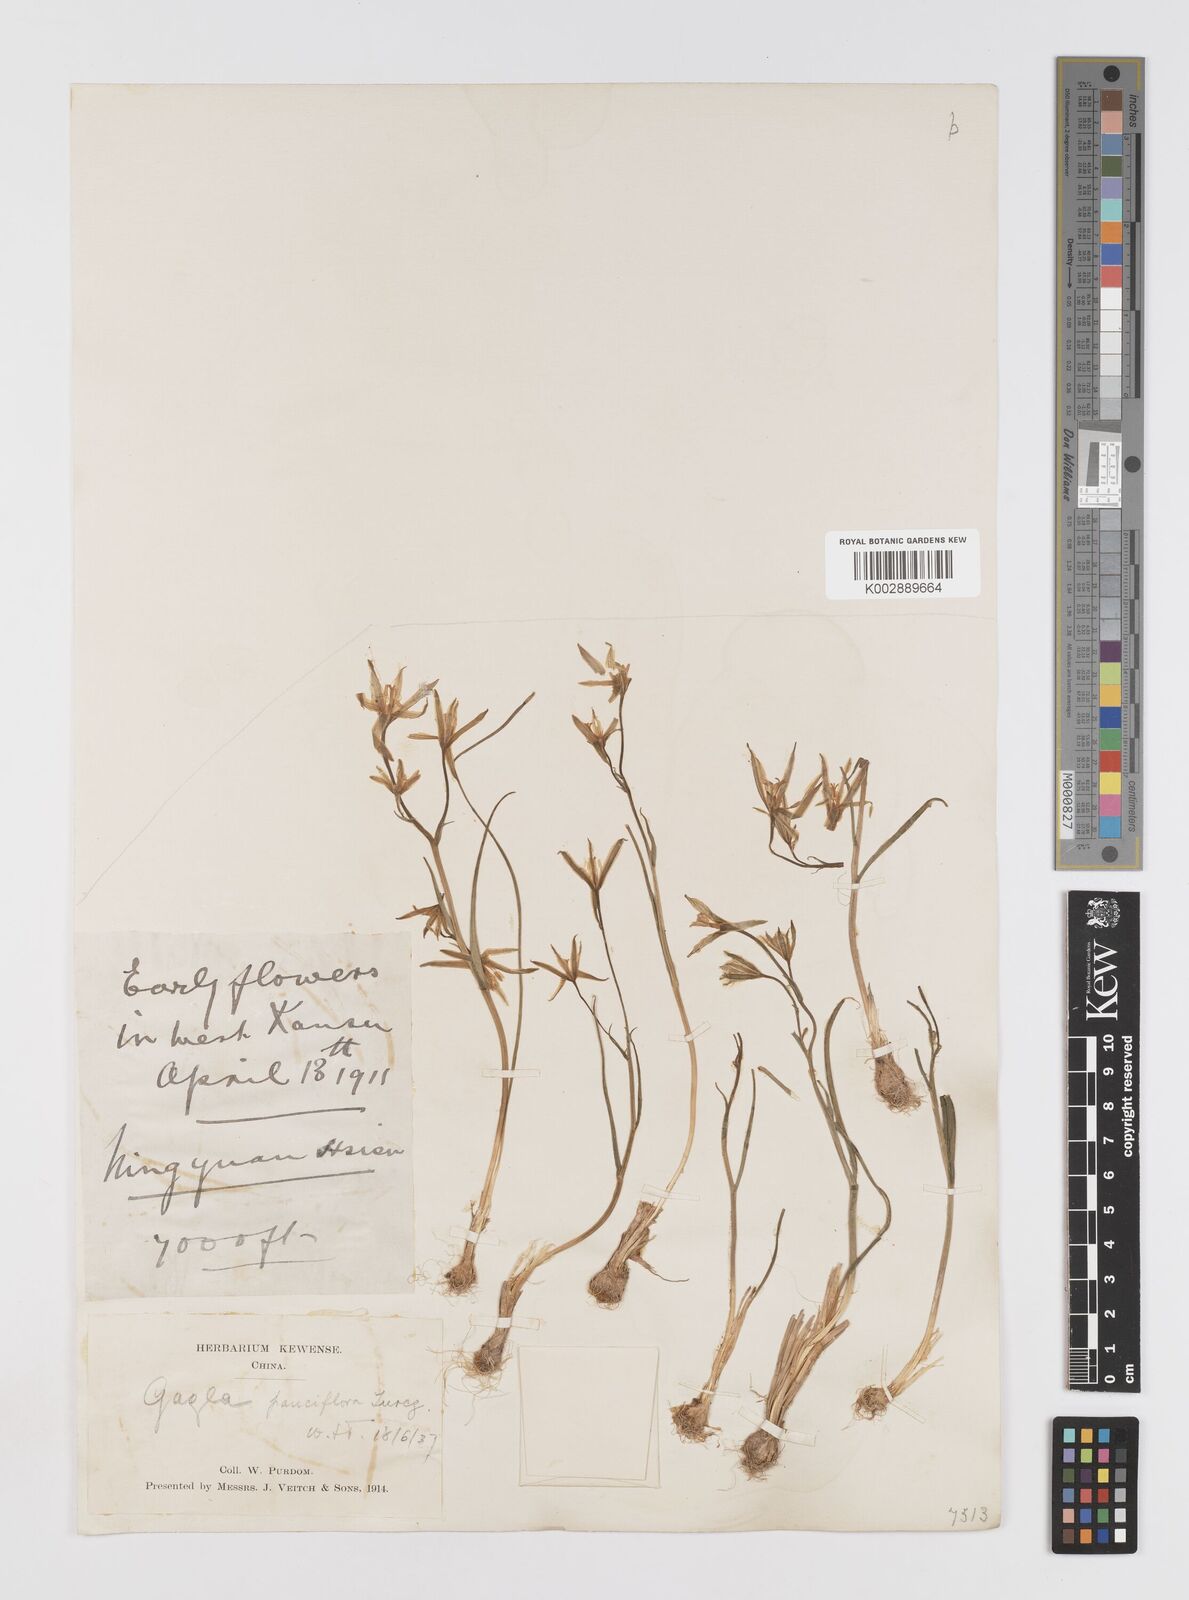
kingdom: Plantae
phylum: Tracheophyta
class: Liliopsida
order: Liliales
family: Liliaceae
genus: Gagea
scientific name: Gagea pauciflora
